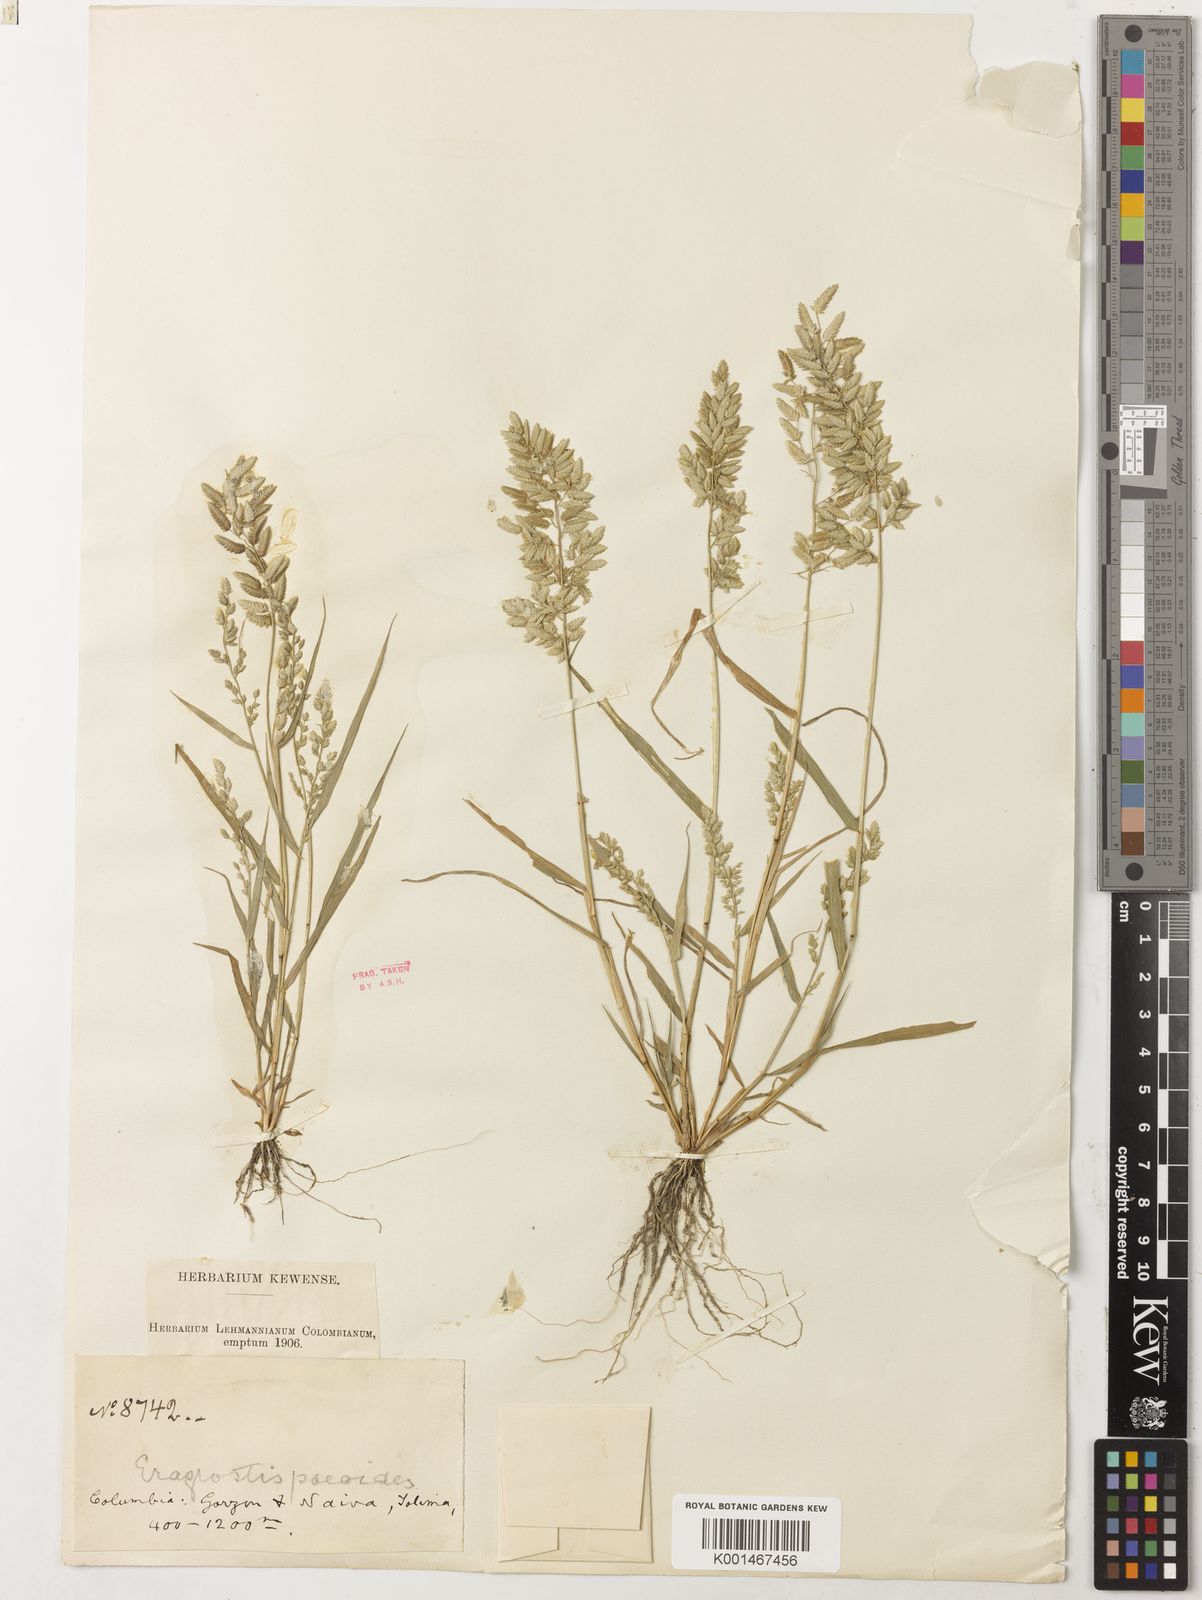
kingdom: Plantae
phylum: Tracheophyta
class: Liliopsida
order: Poales
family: Poaceae
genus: Eragrostis
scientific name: Eragrostis
